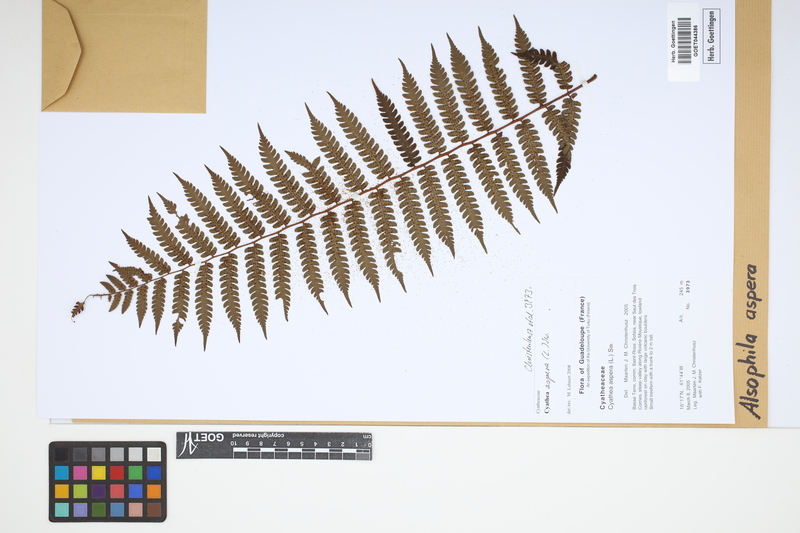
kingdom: Plantae
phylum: Tracheophyta
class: Polypodiopsida
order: Cyatheales
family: Cyatheaceae
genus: Cyathea
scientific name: Cyathea aspera
